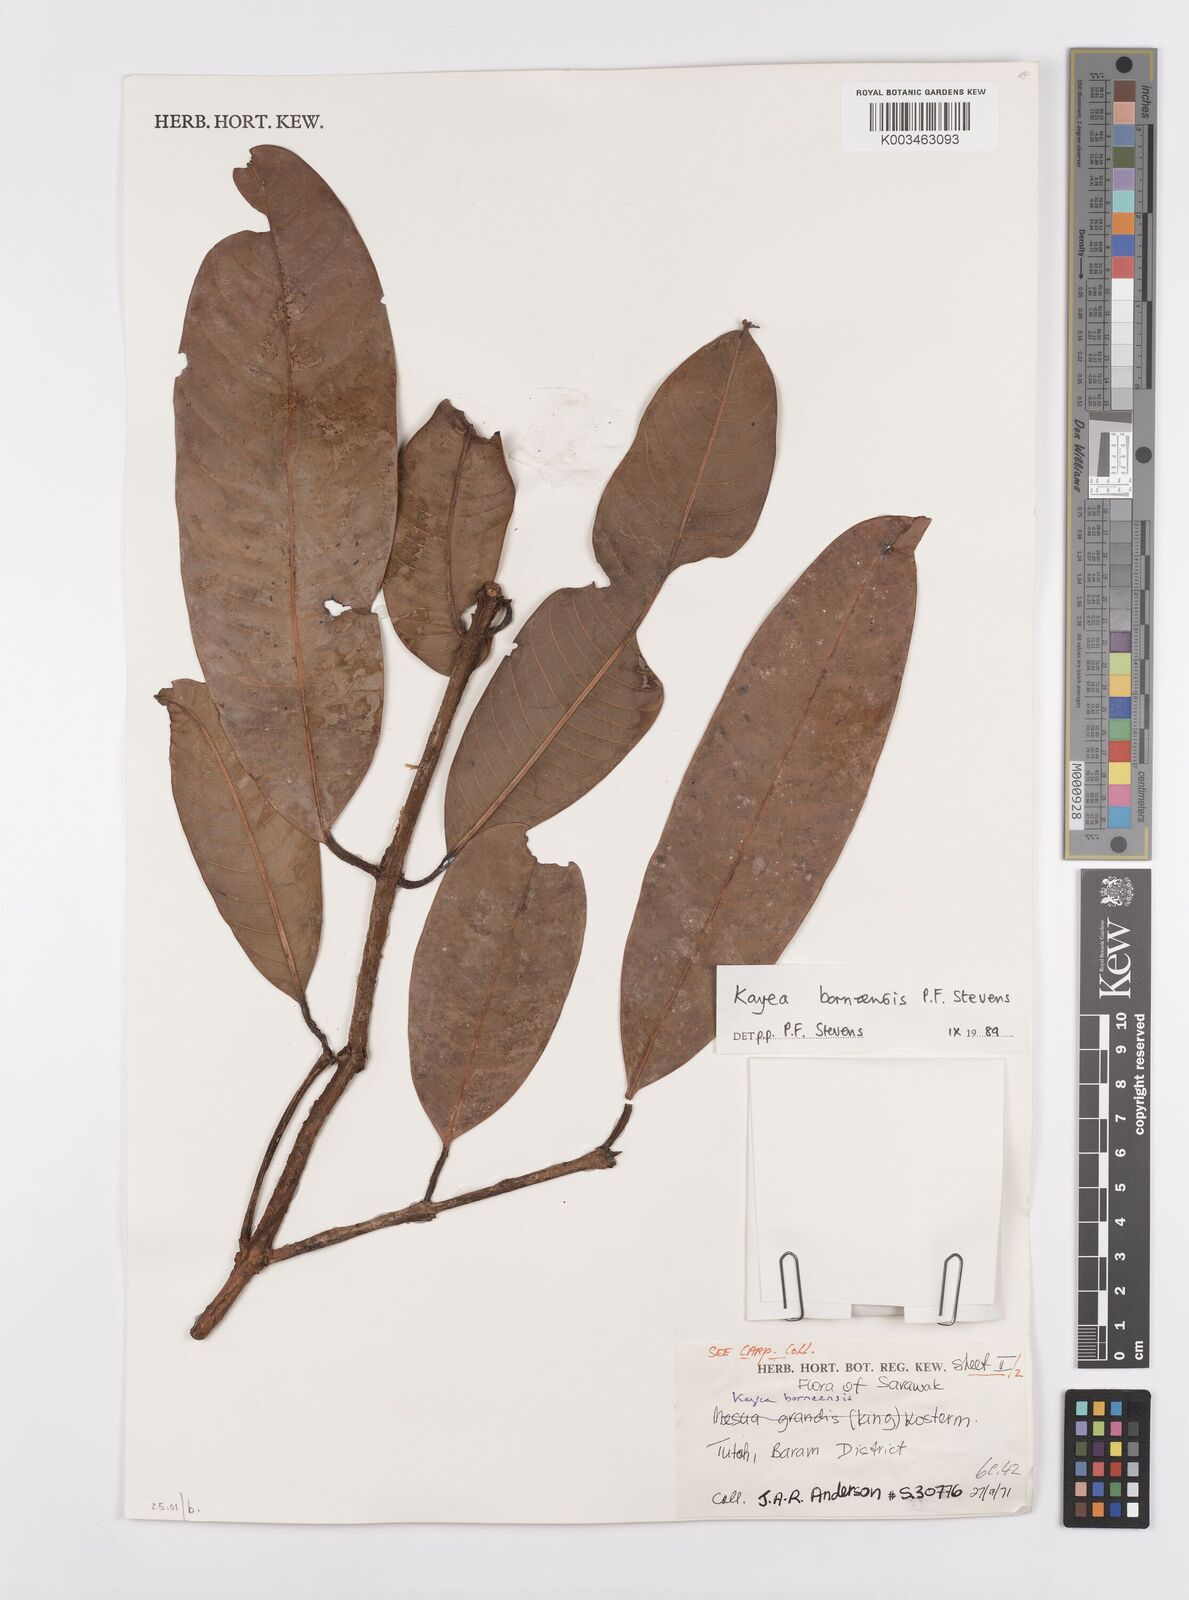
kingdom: Plantae
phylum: Tracheophyta
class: Magnoliopsida
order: Malpighiales
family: Calophyllaceae
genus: Kayea
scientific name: Kayea borneensis
